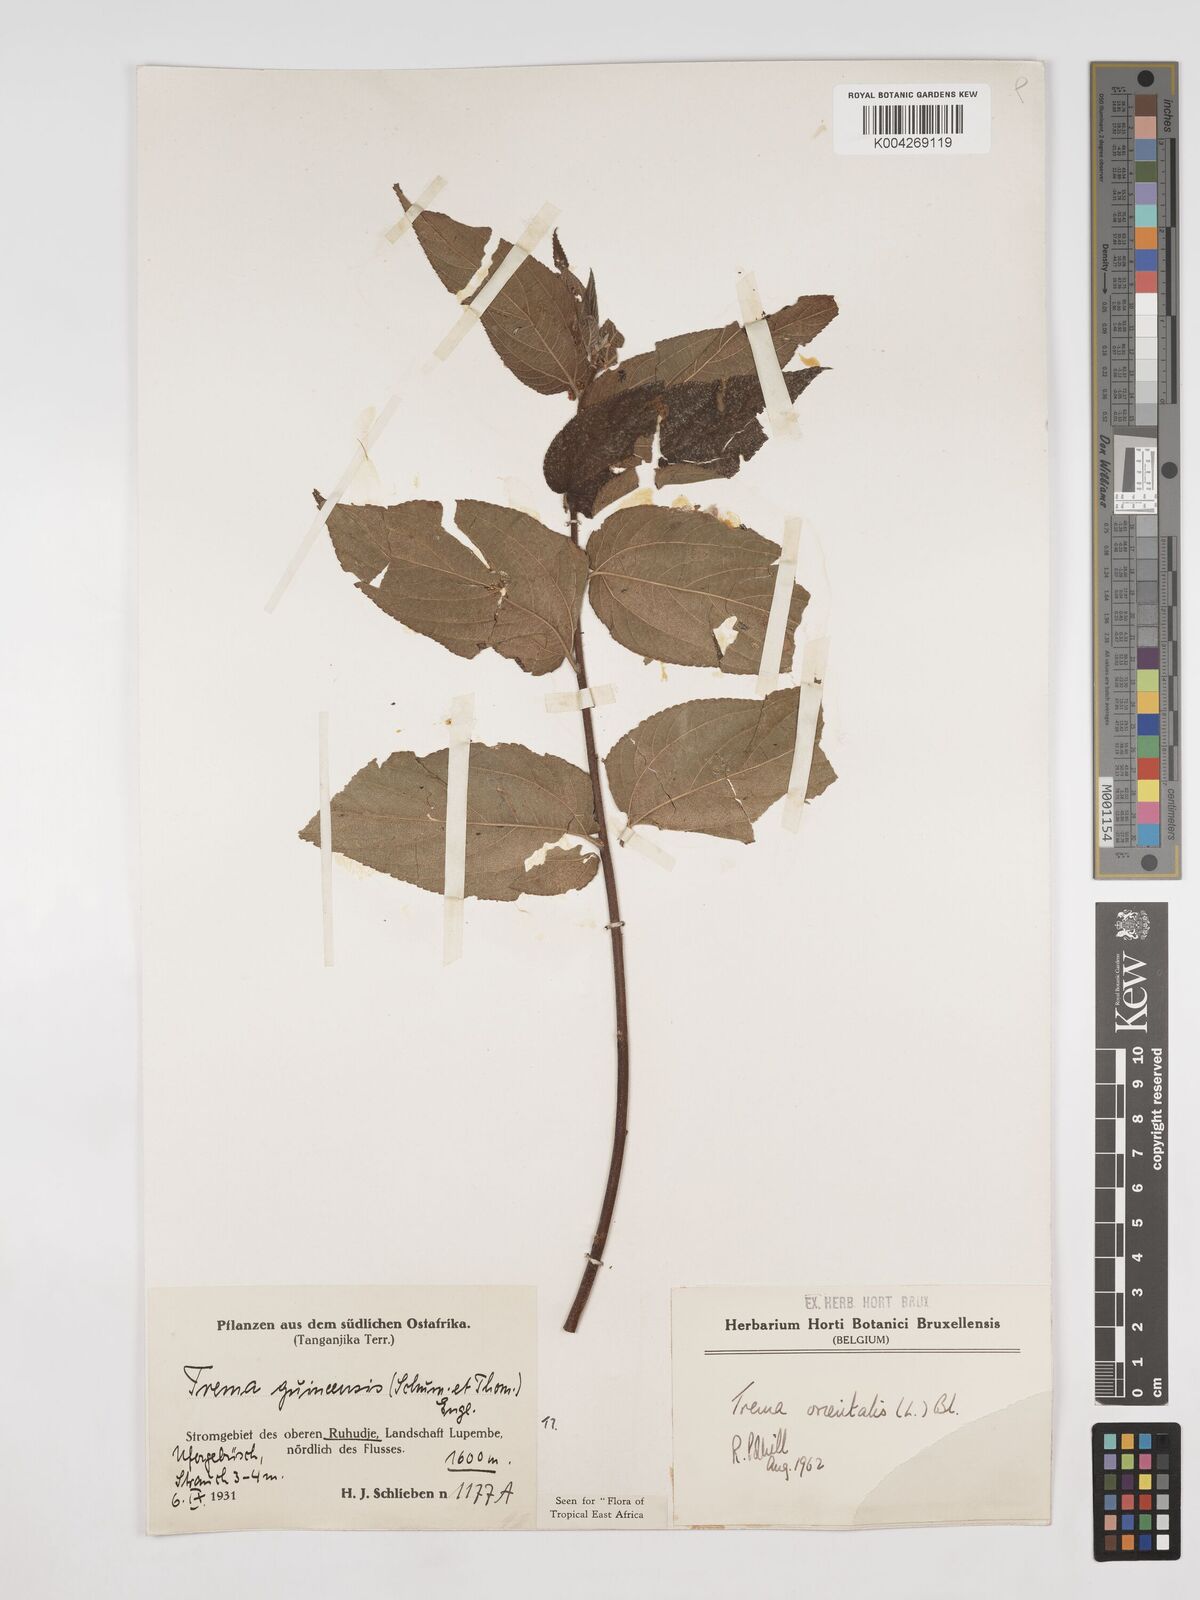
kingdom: Plantae
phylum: Tracheophyta
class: Magnoliopsida
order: Rosales
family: Cannabaceae
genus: Trema
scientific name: Trema orientale
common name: Indian charcoal tree
